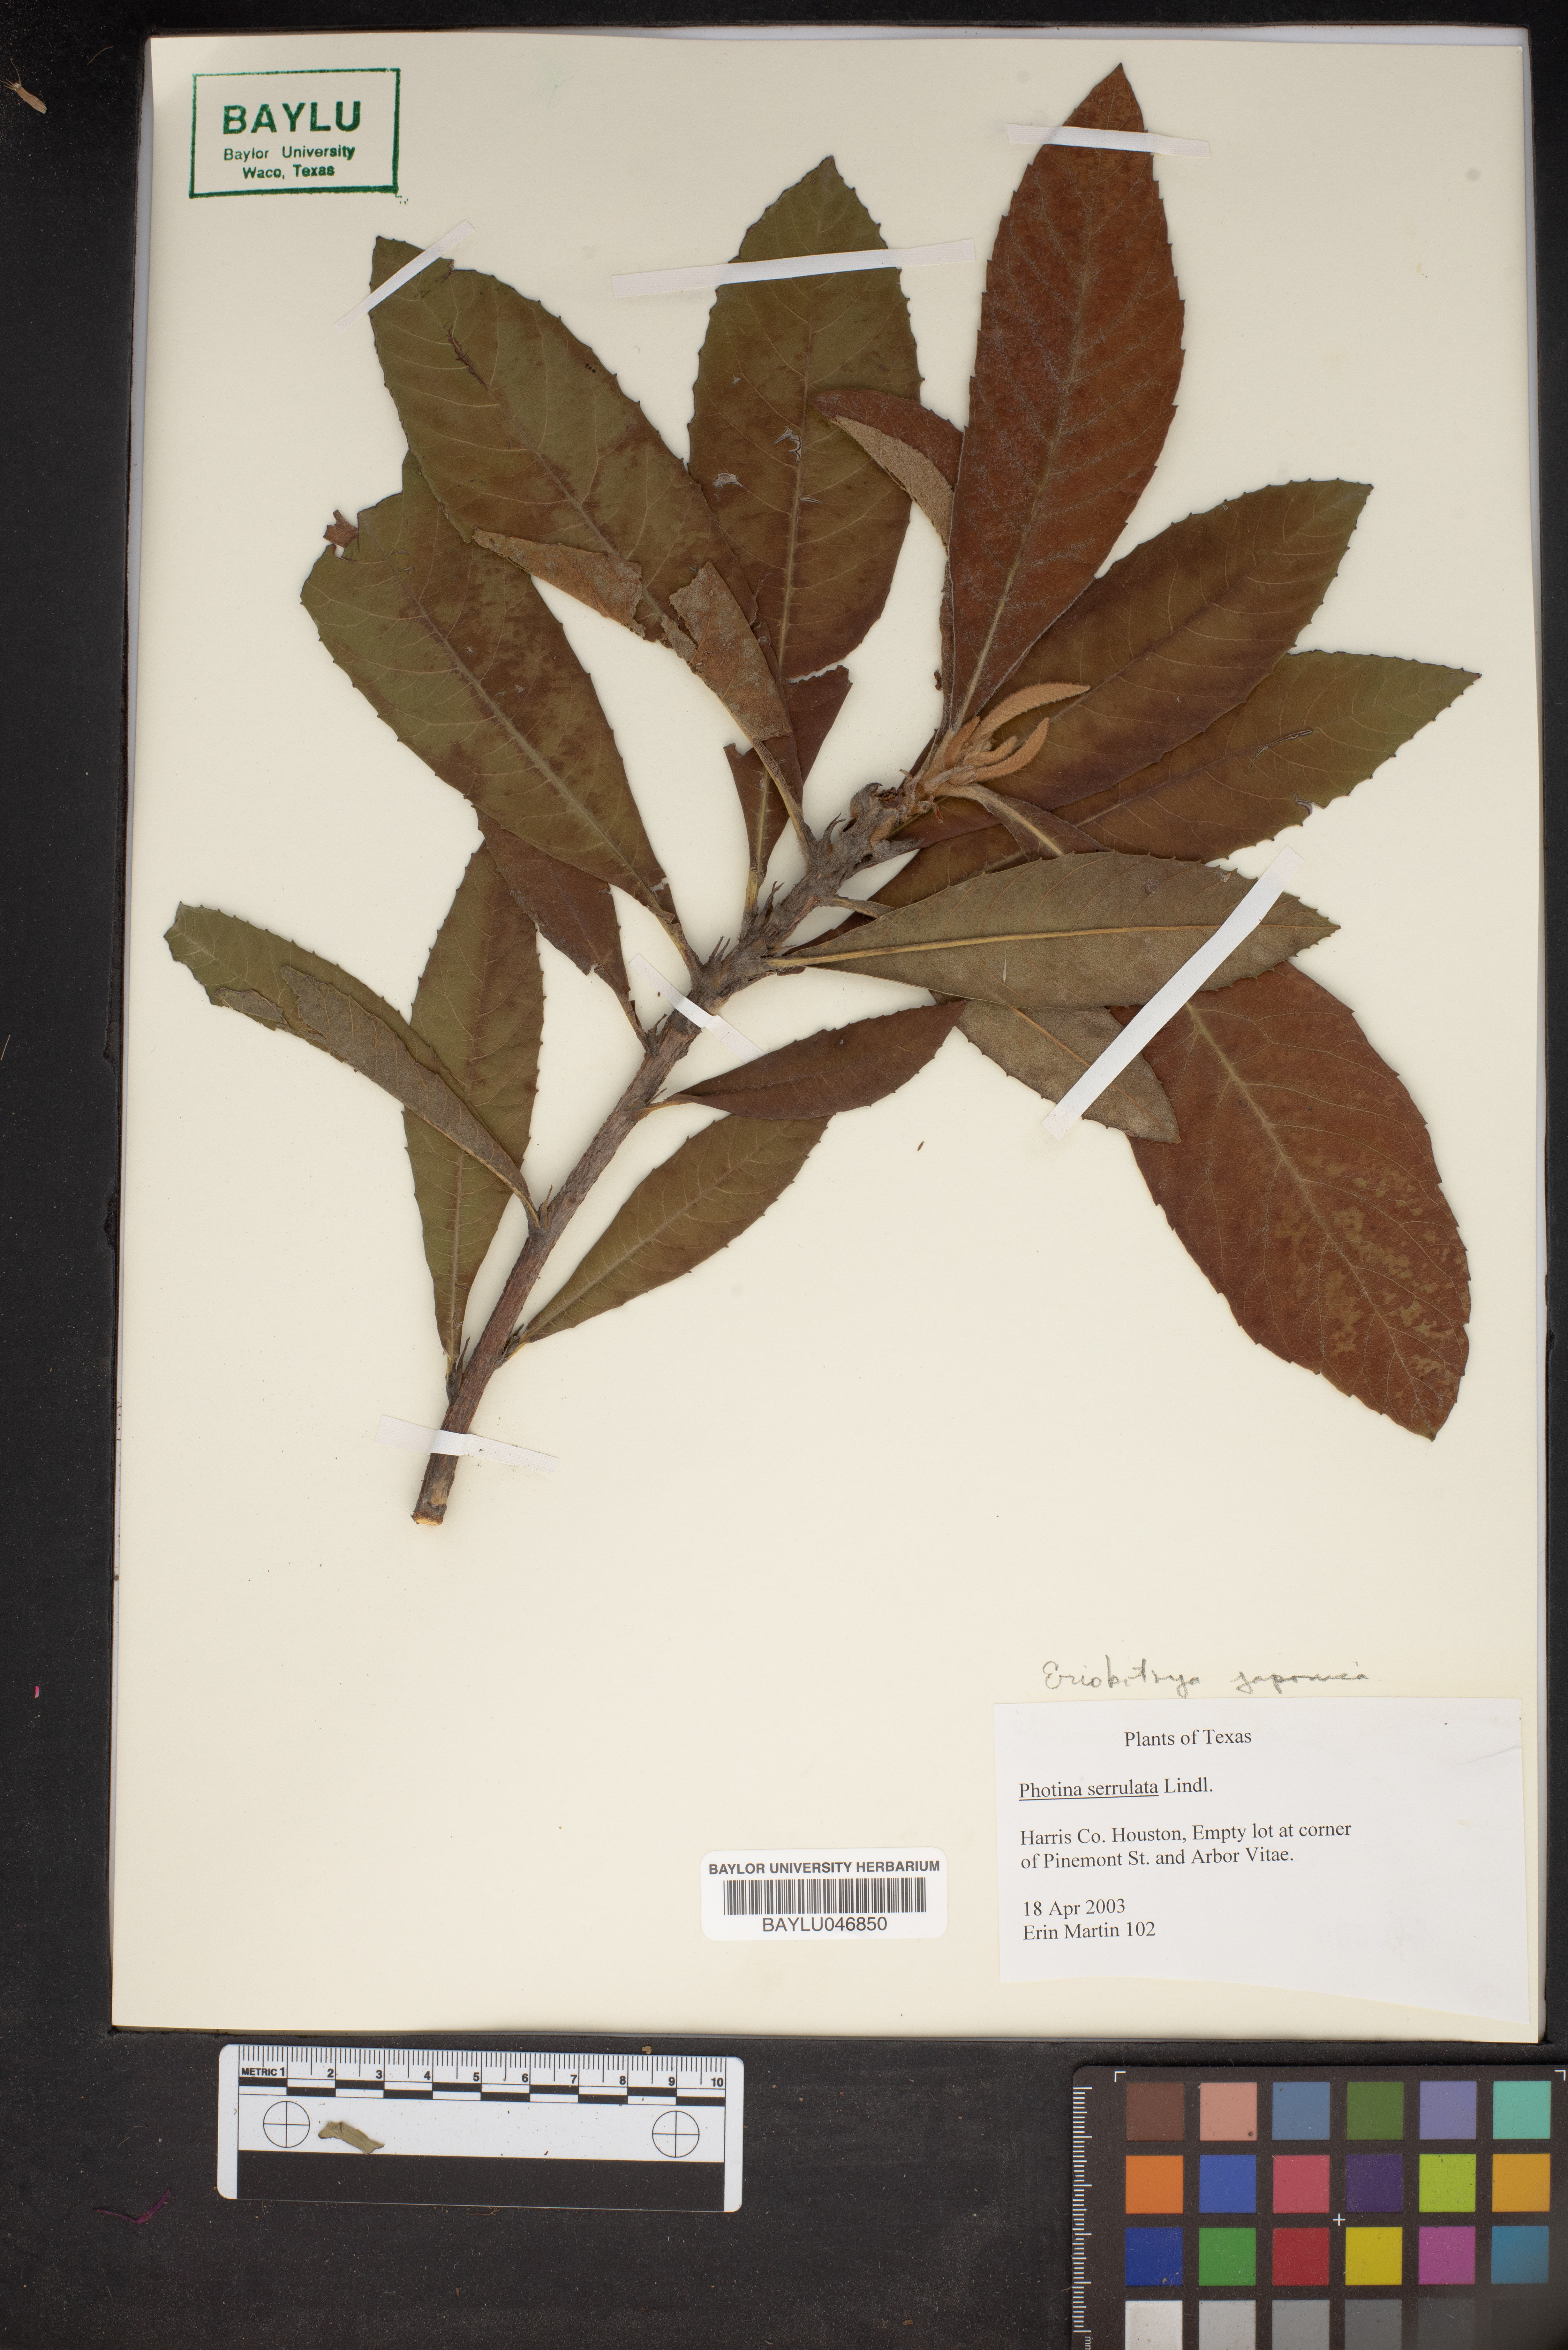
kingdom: Plantae
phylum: Tracheophyta
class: Magnoliopsida
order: Rosales
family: Rosaceae
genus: Photinia
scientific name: Photinia glabra
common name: Japanese photinia
